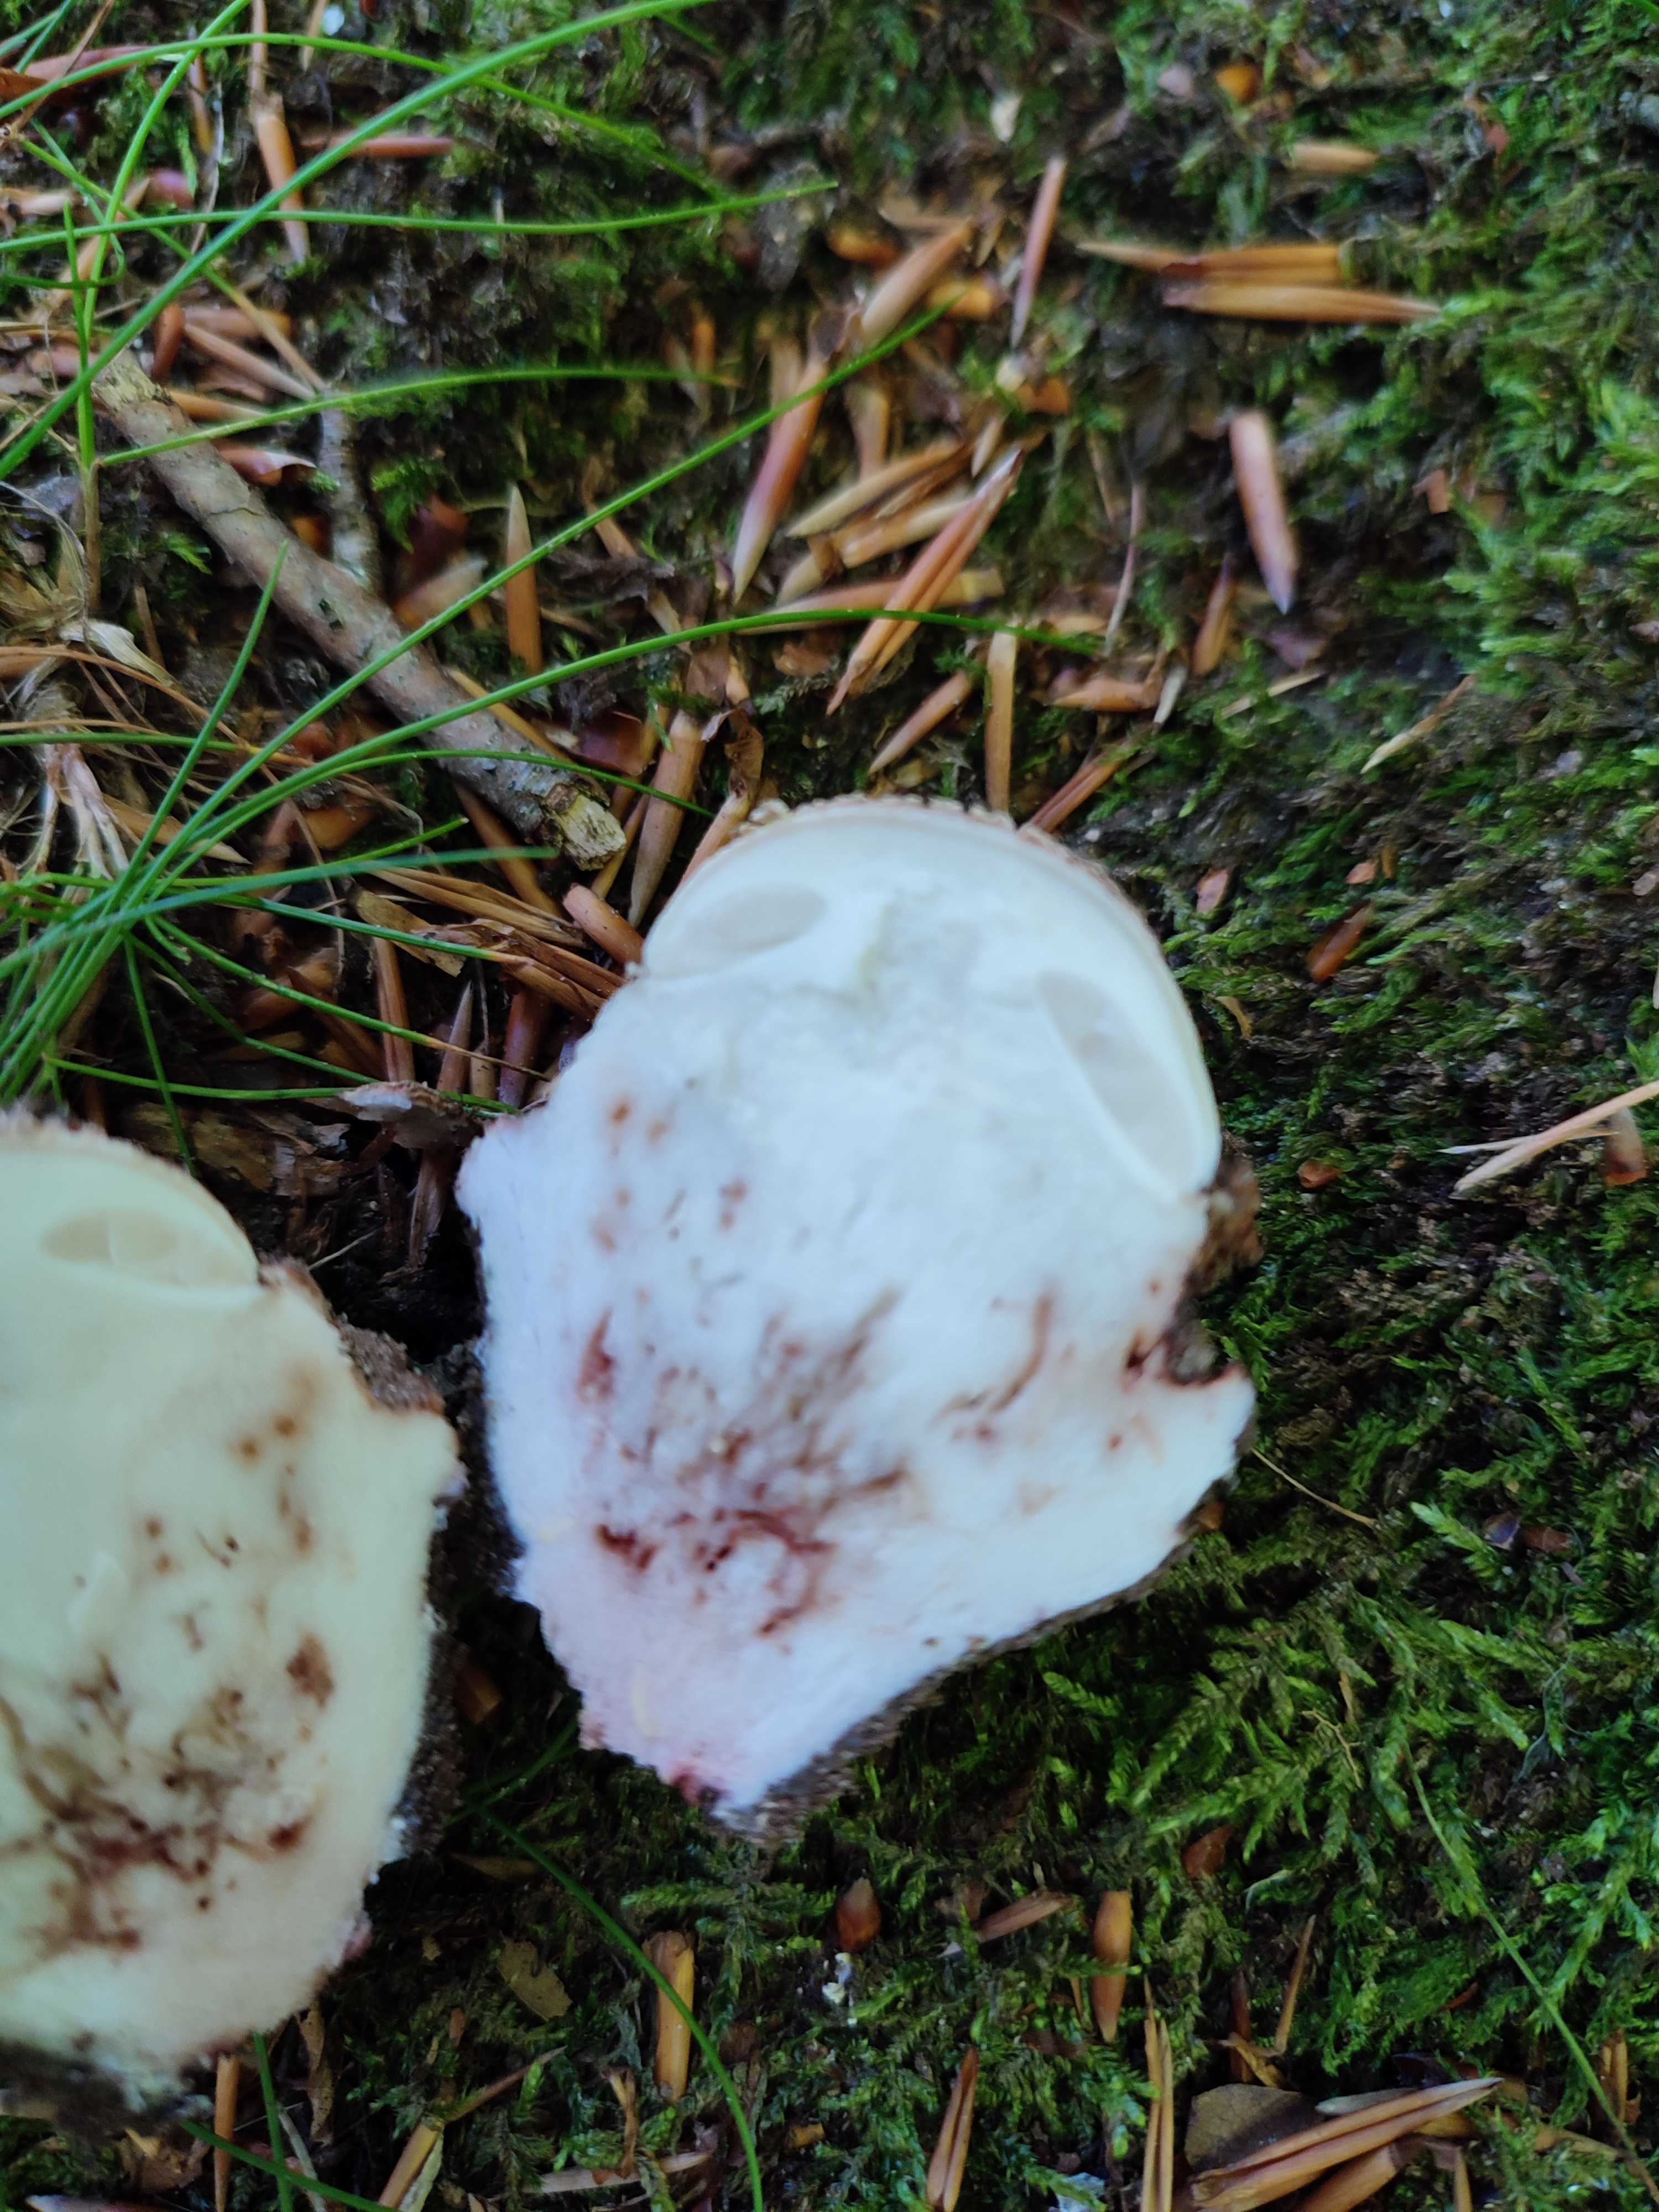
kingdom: Fungi
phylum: Basidiomycota
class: Agaricomycetes
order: Agaricales
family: Amanitaceae
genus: Amanita
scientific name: Amanita rubescens
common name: rødmende fluesvamp
